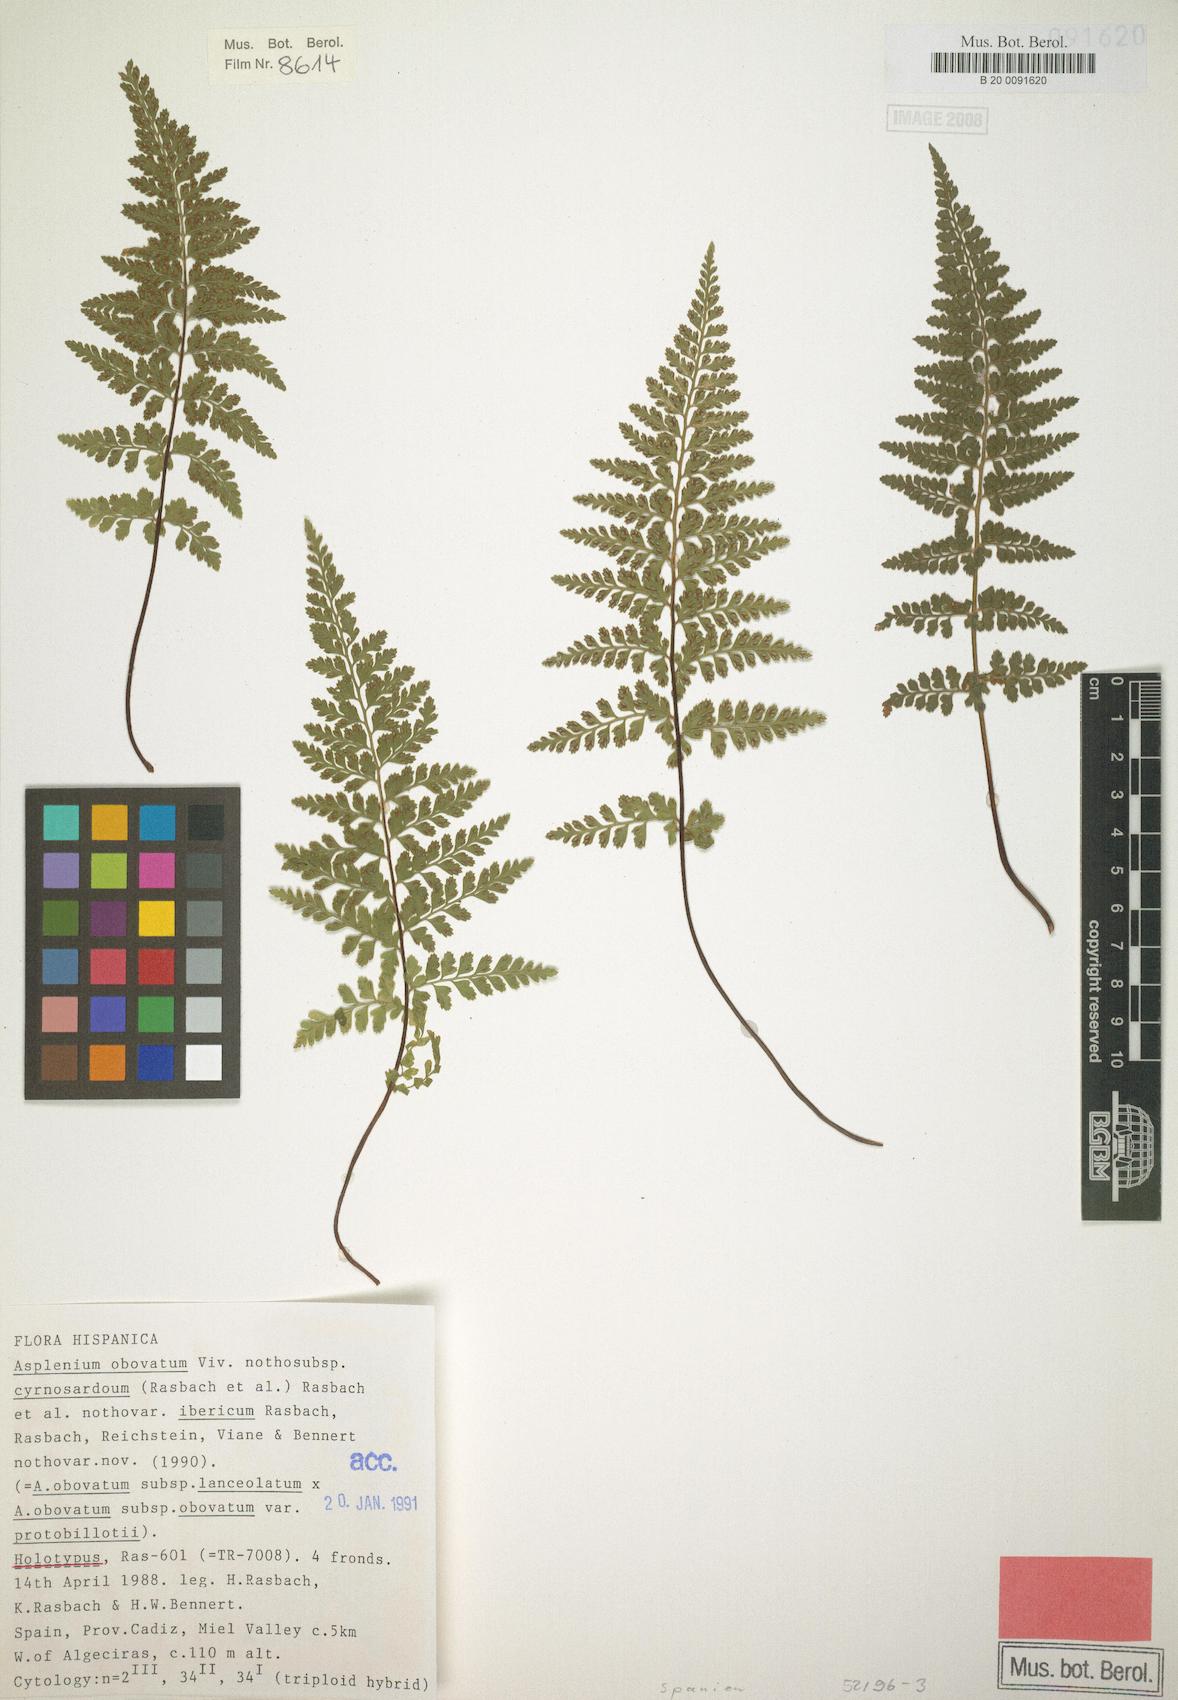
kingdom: Plantae
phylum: Tracheophyta
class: Polypodiopsida
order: Polypodiales
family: Aspleniaceae
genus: Asplenium
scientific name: Asplenium obovatum
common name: Lanceolate spleenwort
